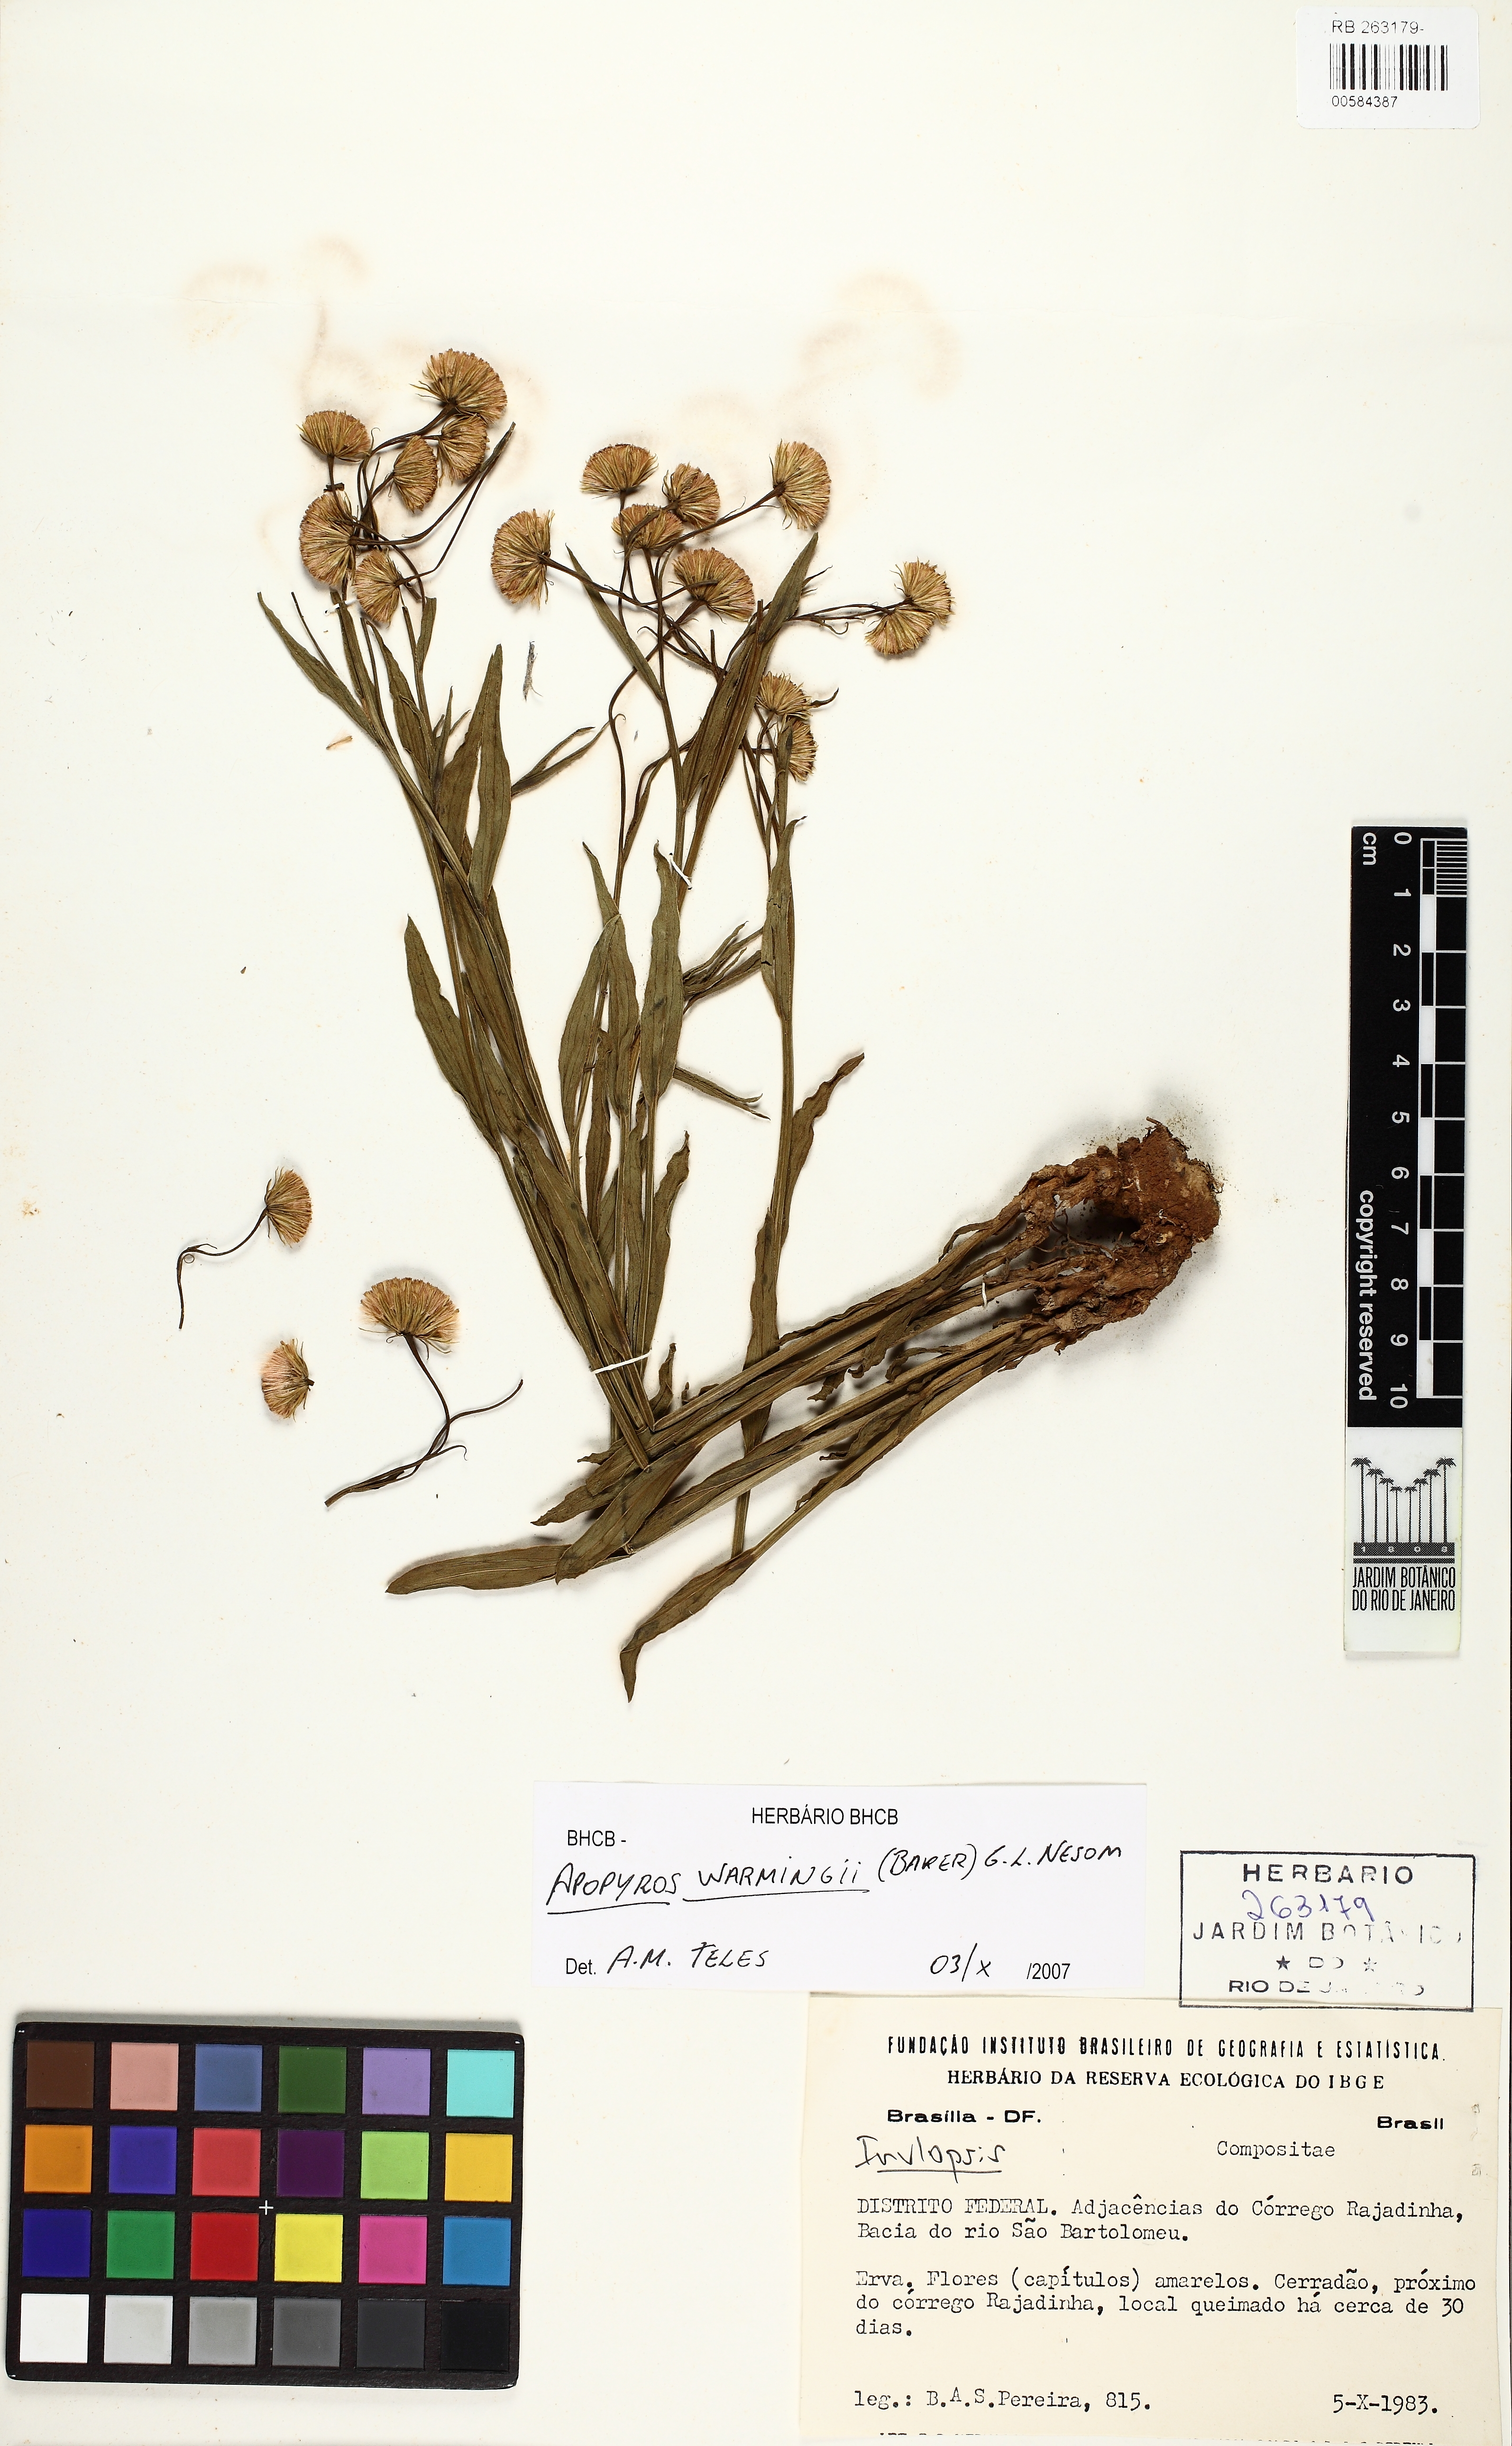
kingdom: Plantae
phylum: Tracheophyta
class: Magnoliopsida
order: Asterales
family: Asteraceae
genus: Apopyros
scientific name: Apopyros warmingii
